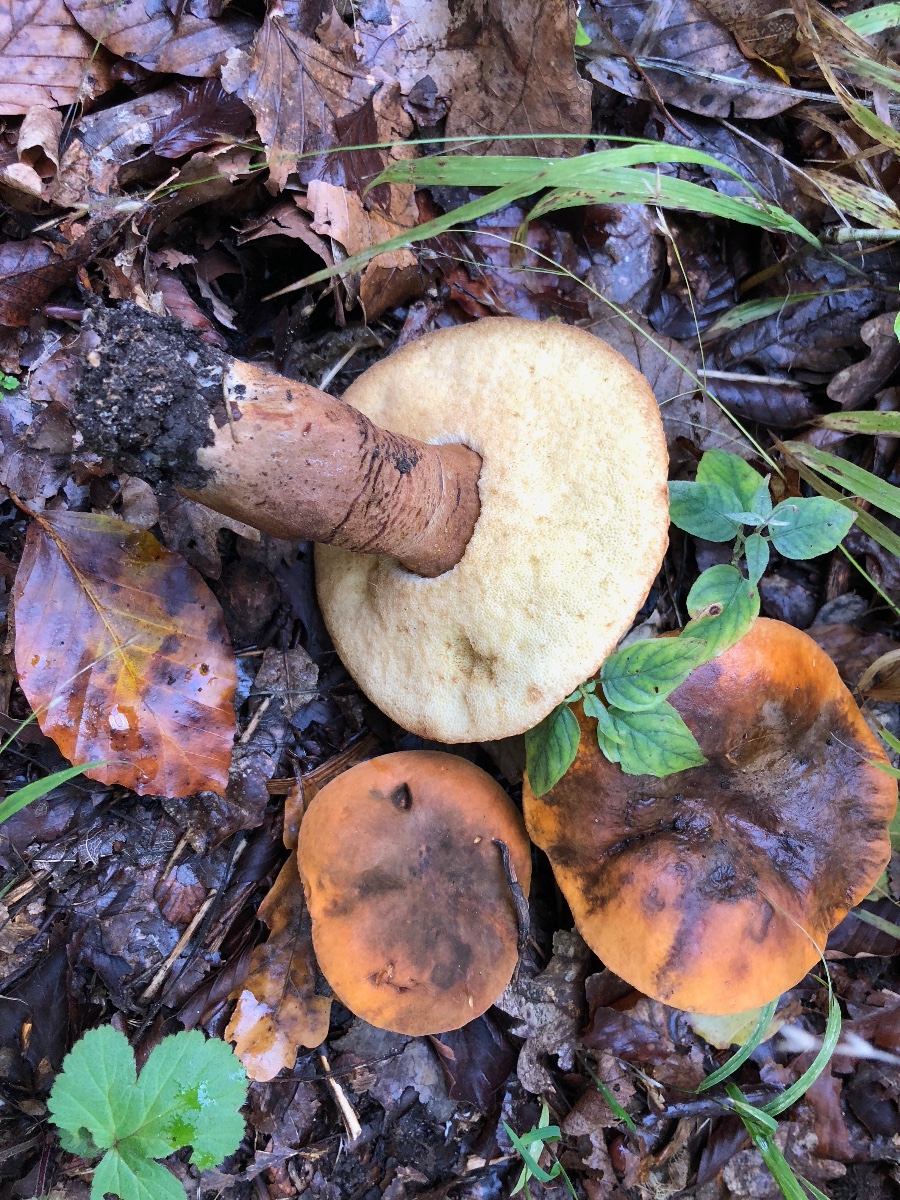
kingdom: Fungi
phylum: Basidiomycota
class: Agaricomycetes
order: Boletales
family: Gyroporaceae
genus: Gyroporus
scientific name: Gyroporus castaneus
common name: kastanie-kammerrørhat
